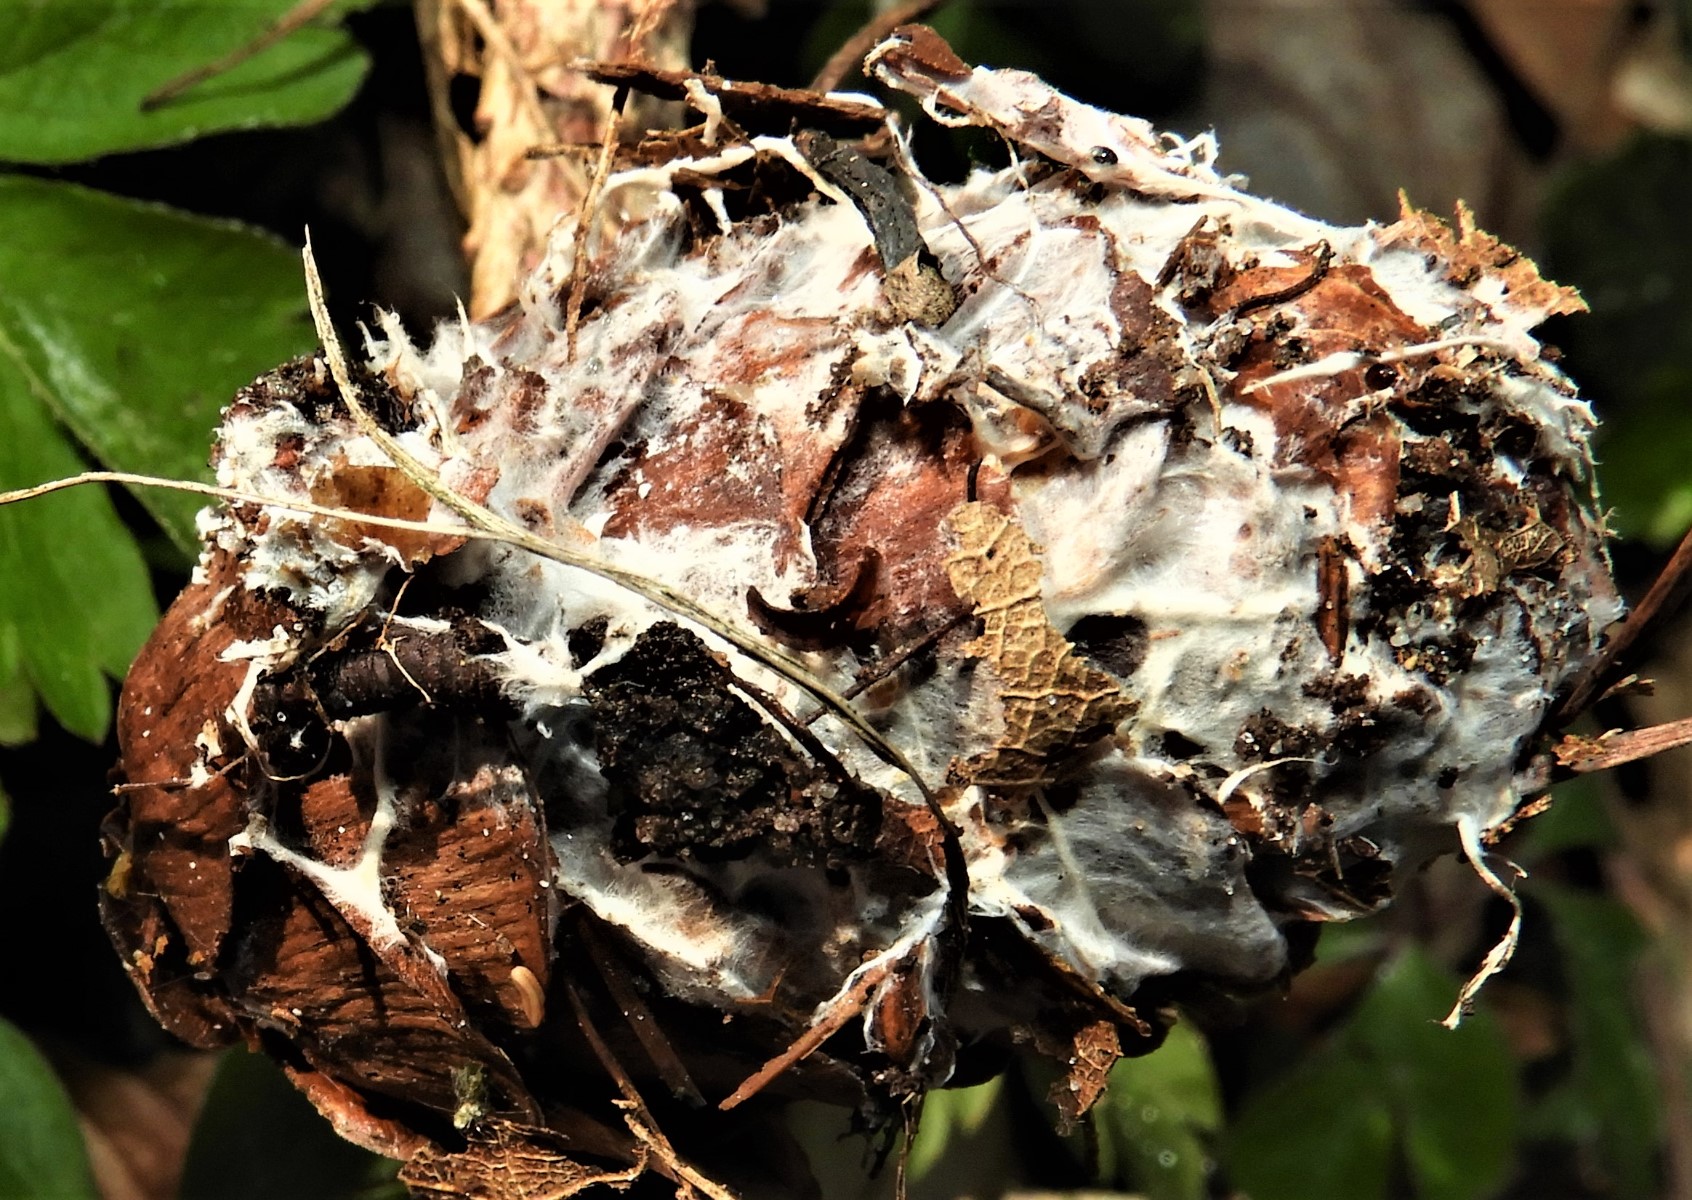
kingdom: Fungi
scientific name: Fungi
